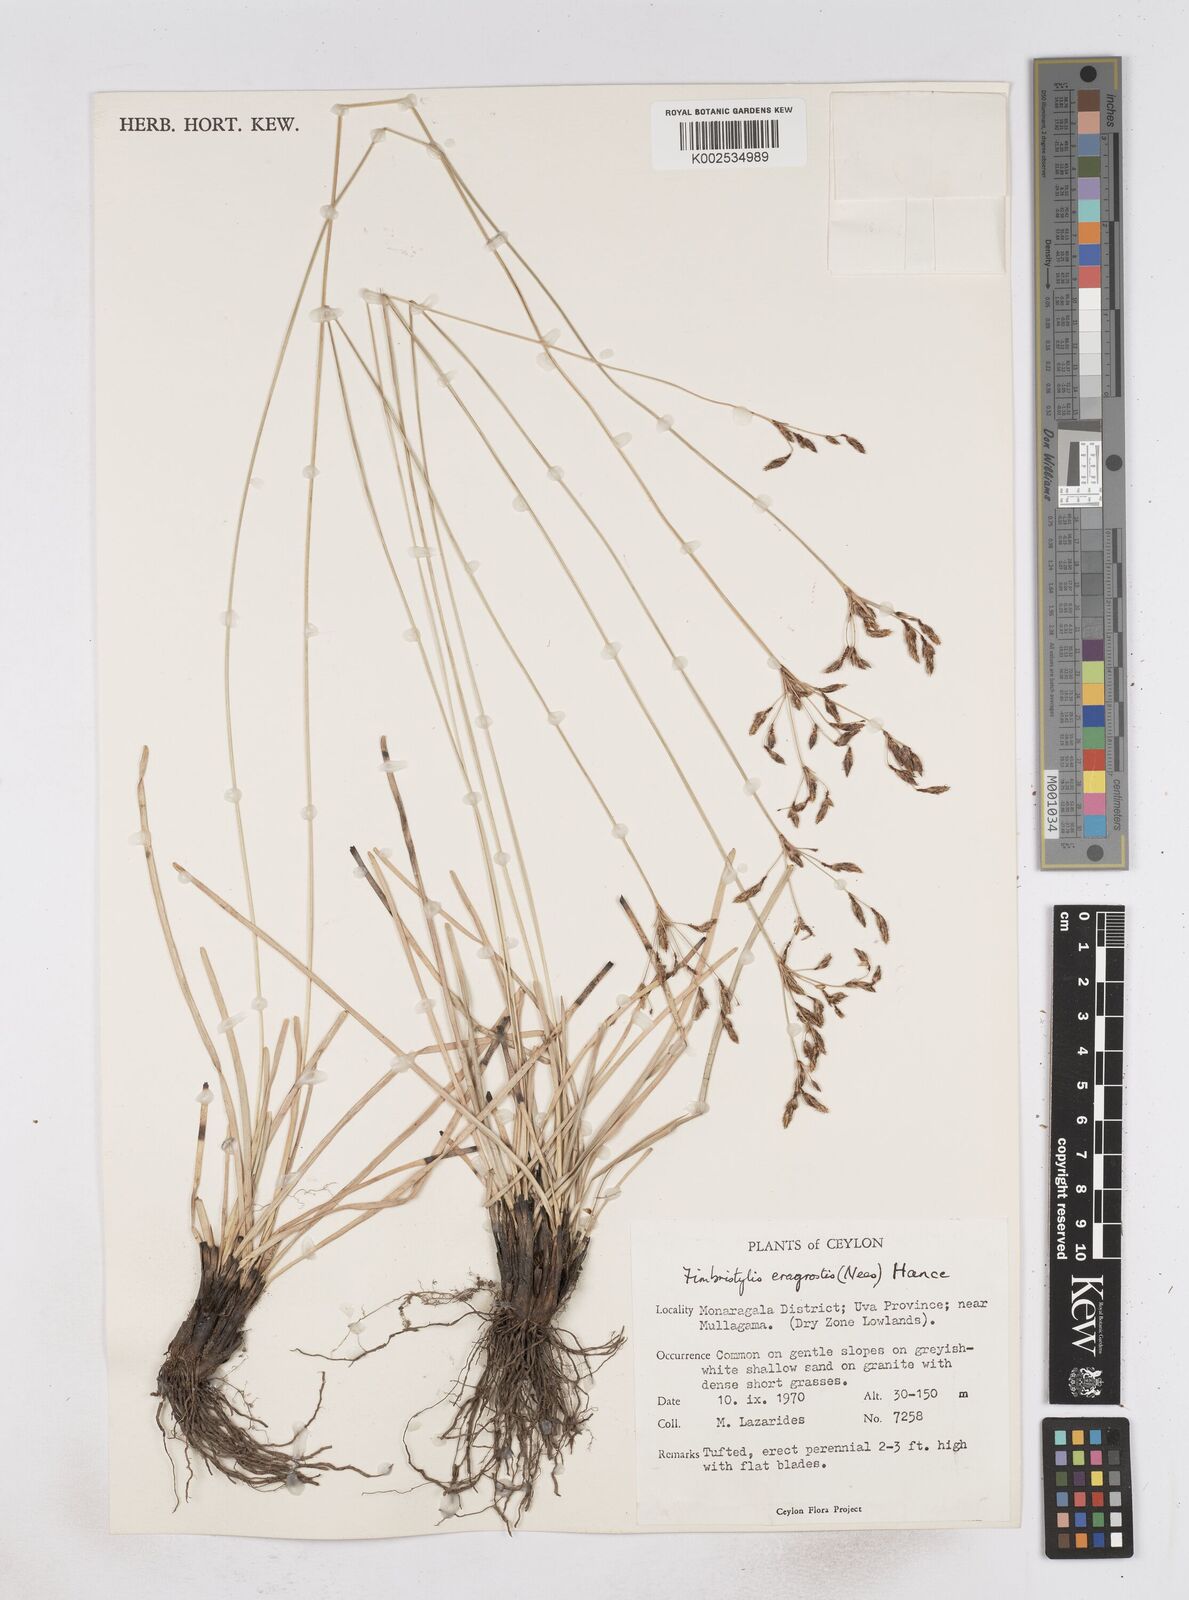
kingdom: Plantae
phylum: Tracheophyta
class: Liliopsida
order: Poales
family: Cyperaceae
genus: Fimbristylis
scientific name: Fimbristylis nigrobrunnea
